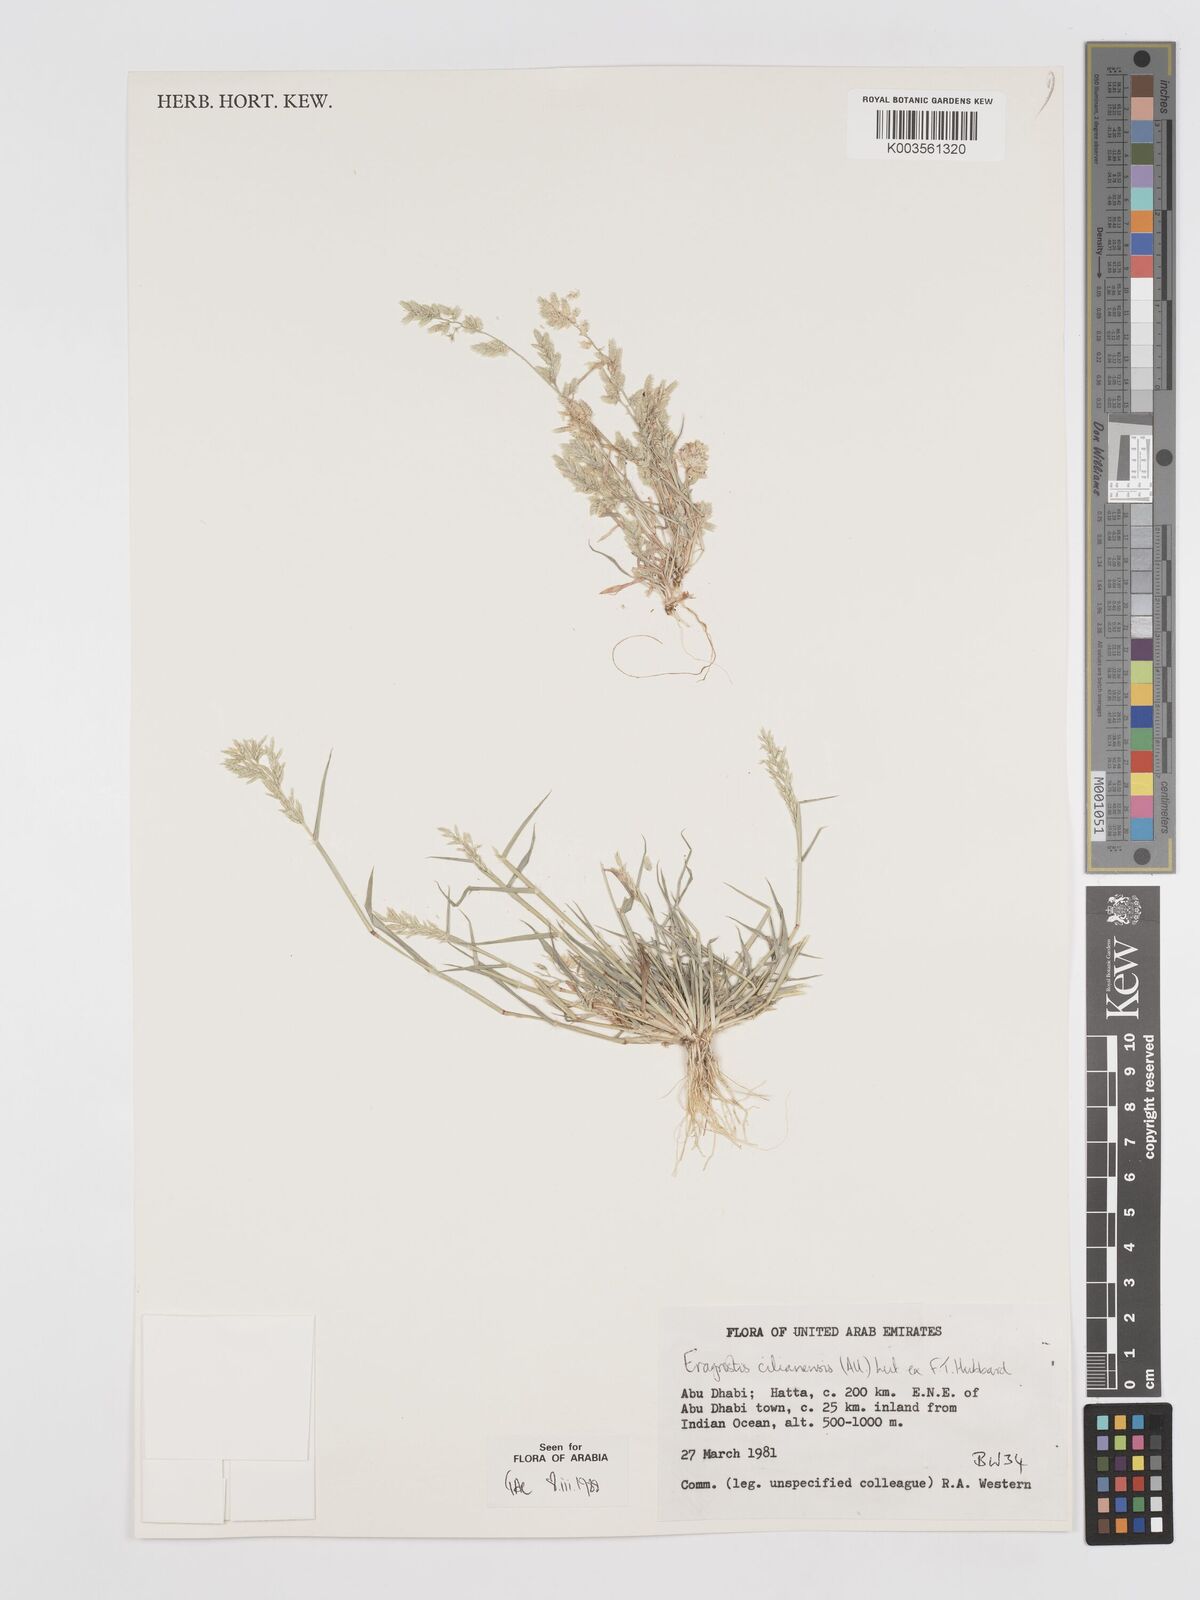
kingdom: Plantae
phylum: Tracheophyta
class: Liliopsida
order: Poales
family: Poaceae
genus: Eragrostis
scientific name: Eragrostis cilianensis
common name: Stinkgrass
